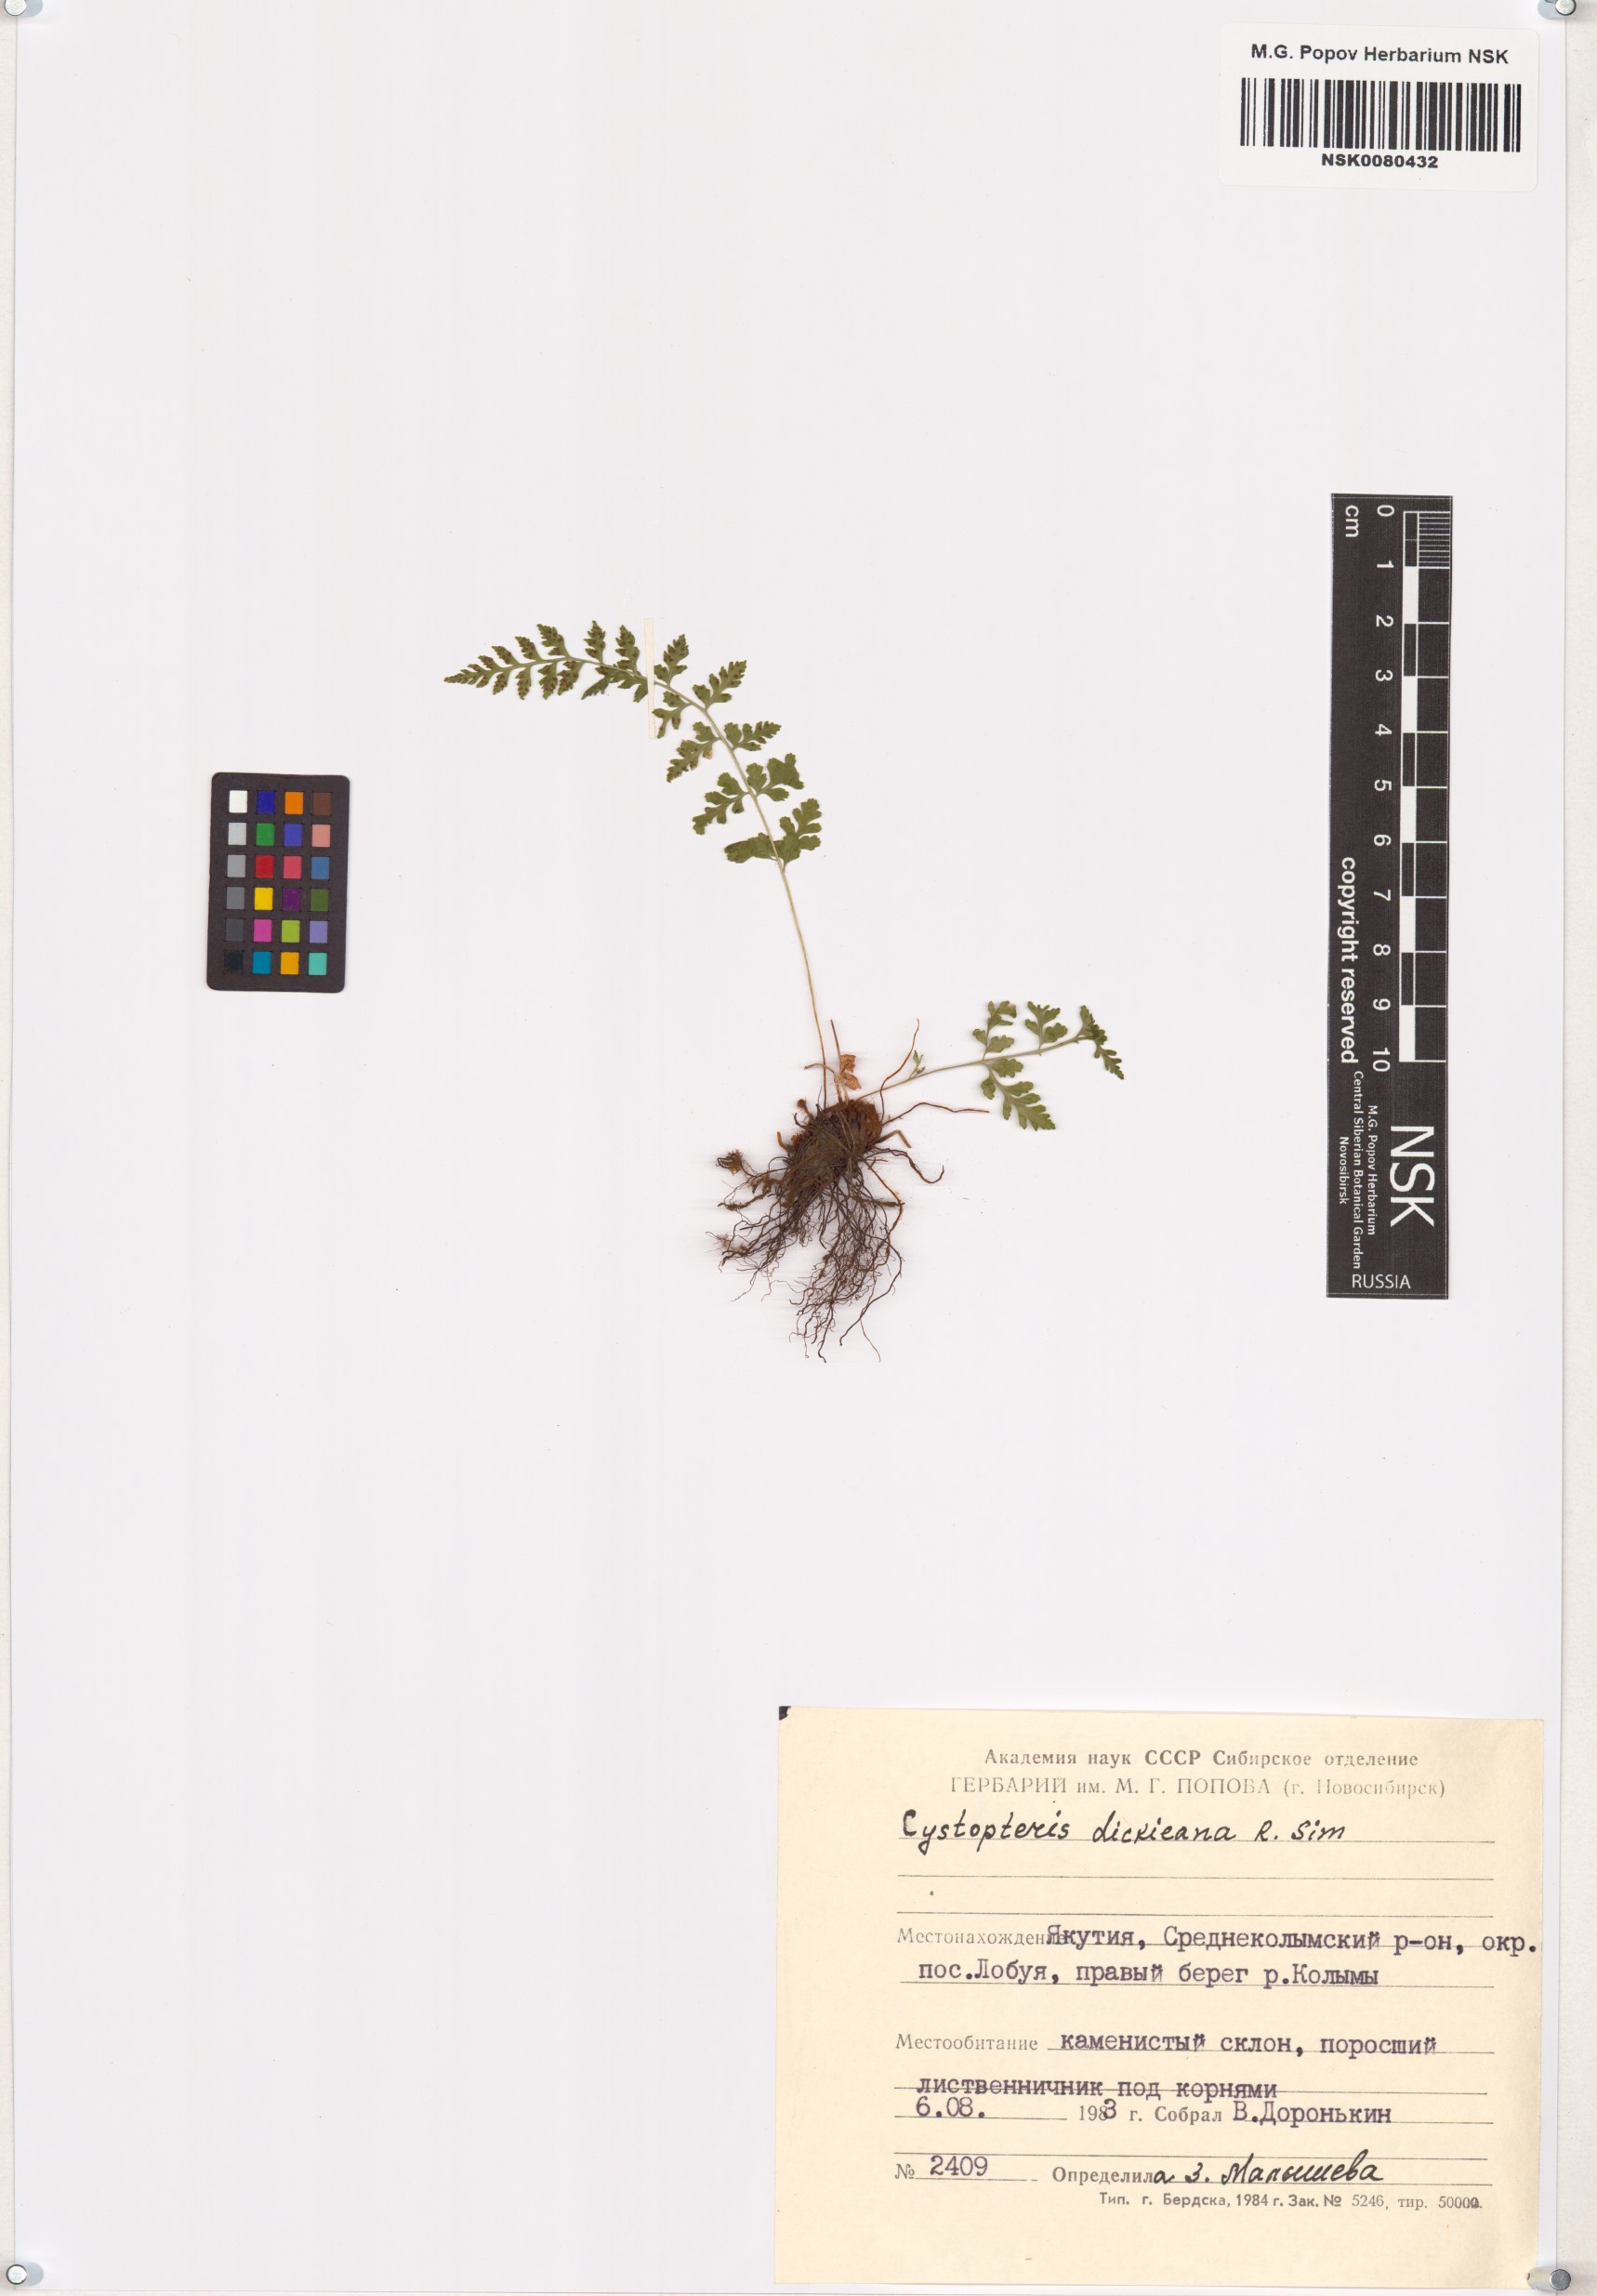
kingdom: Plantae
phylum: Tracheophyta
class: Polypodiopsida
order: Polypodiales
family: Cystopteridaceae
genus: Cystopteris
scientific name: Cystopteris dickieana
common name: Dickie's bladder-fern
